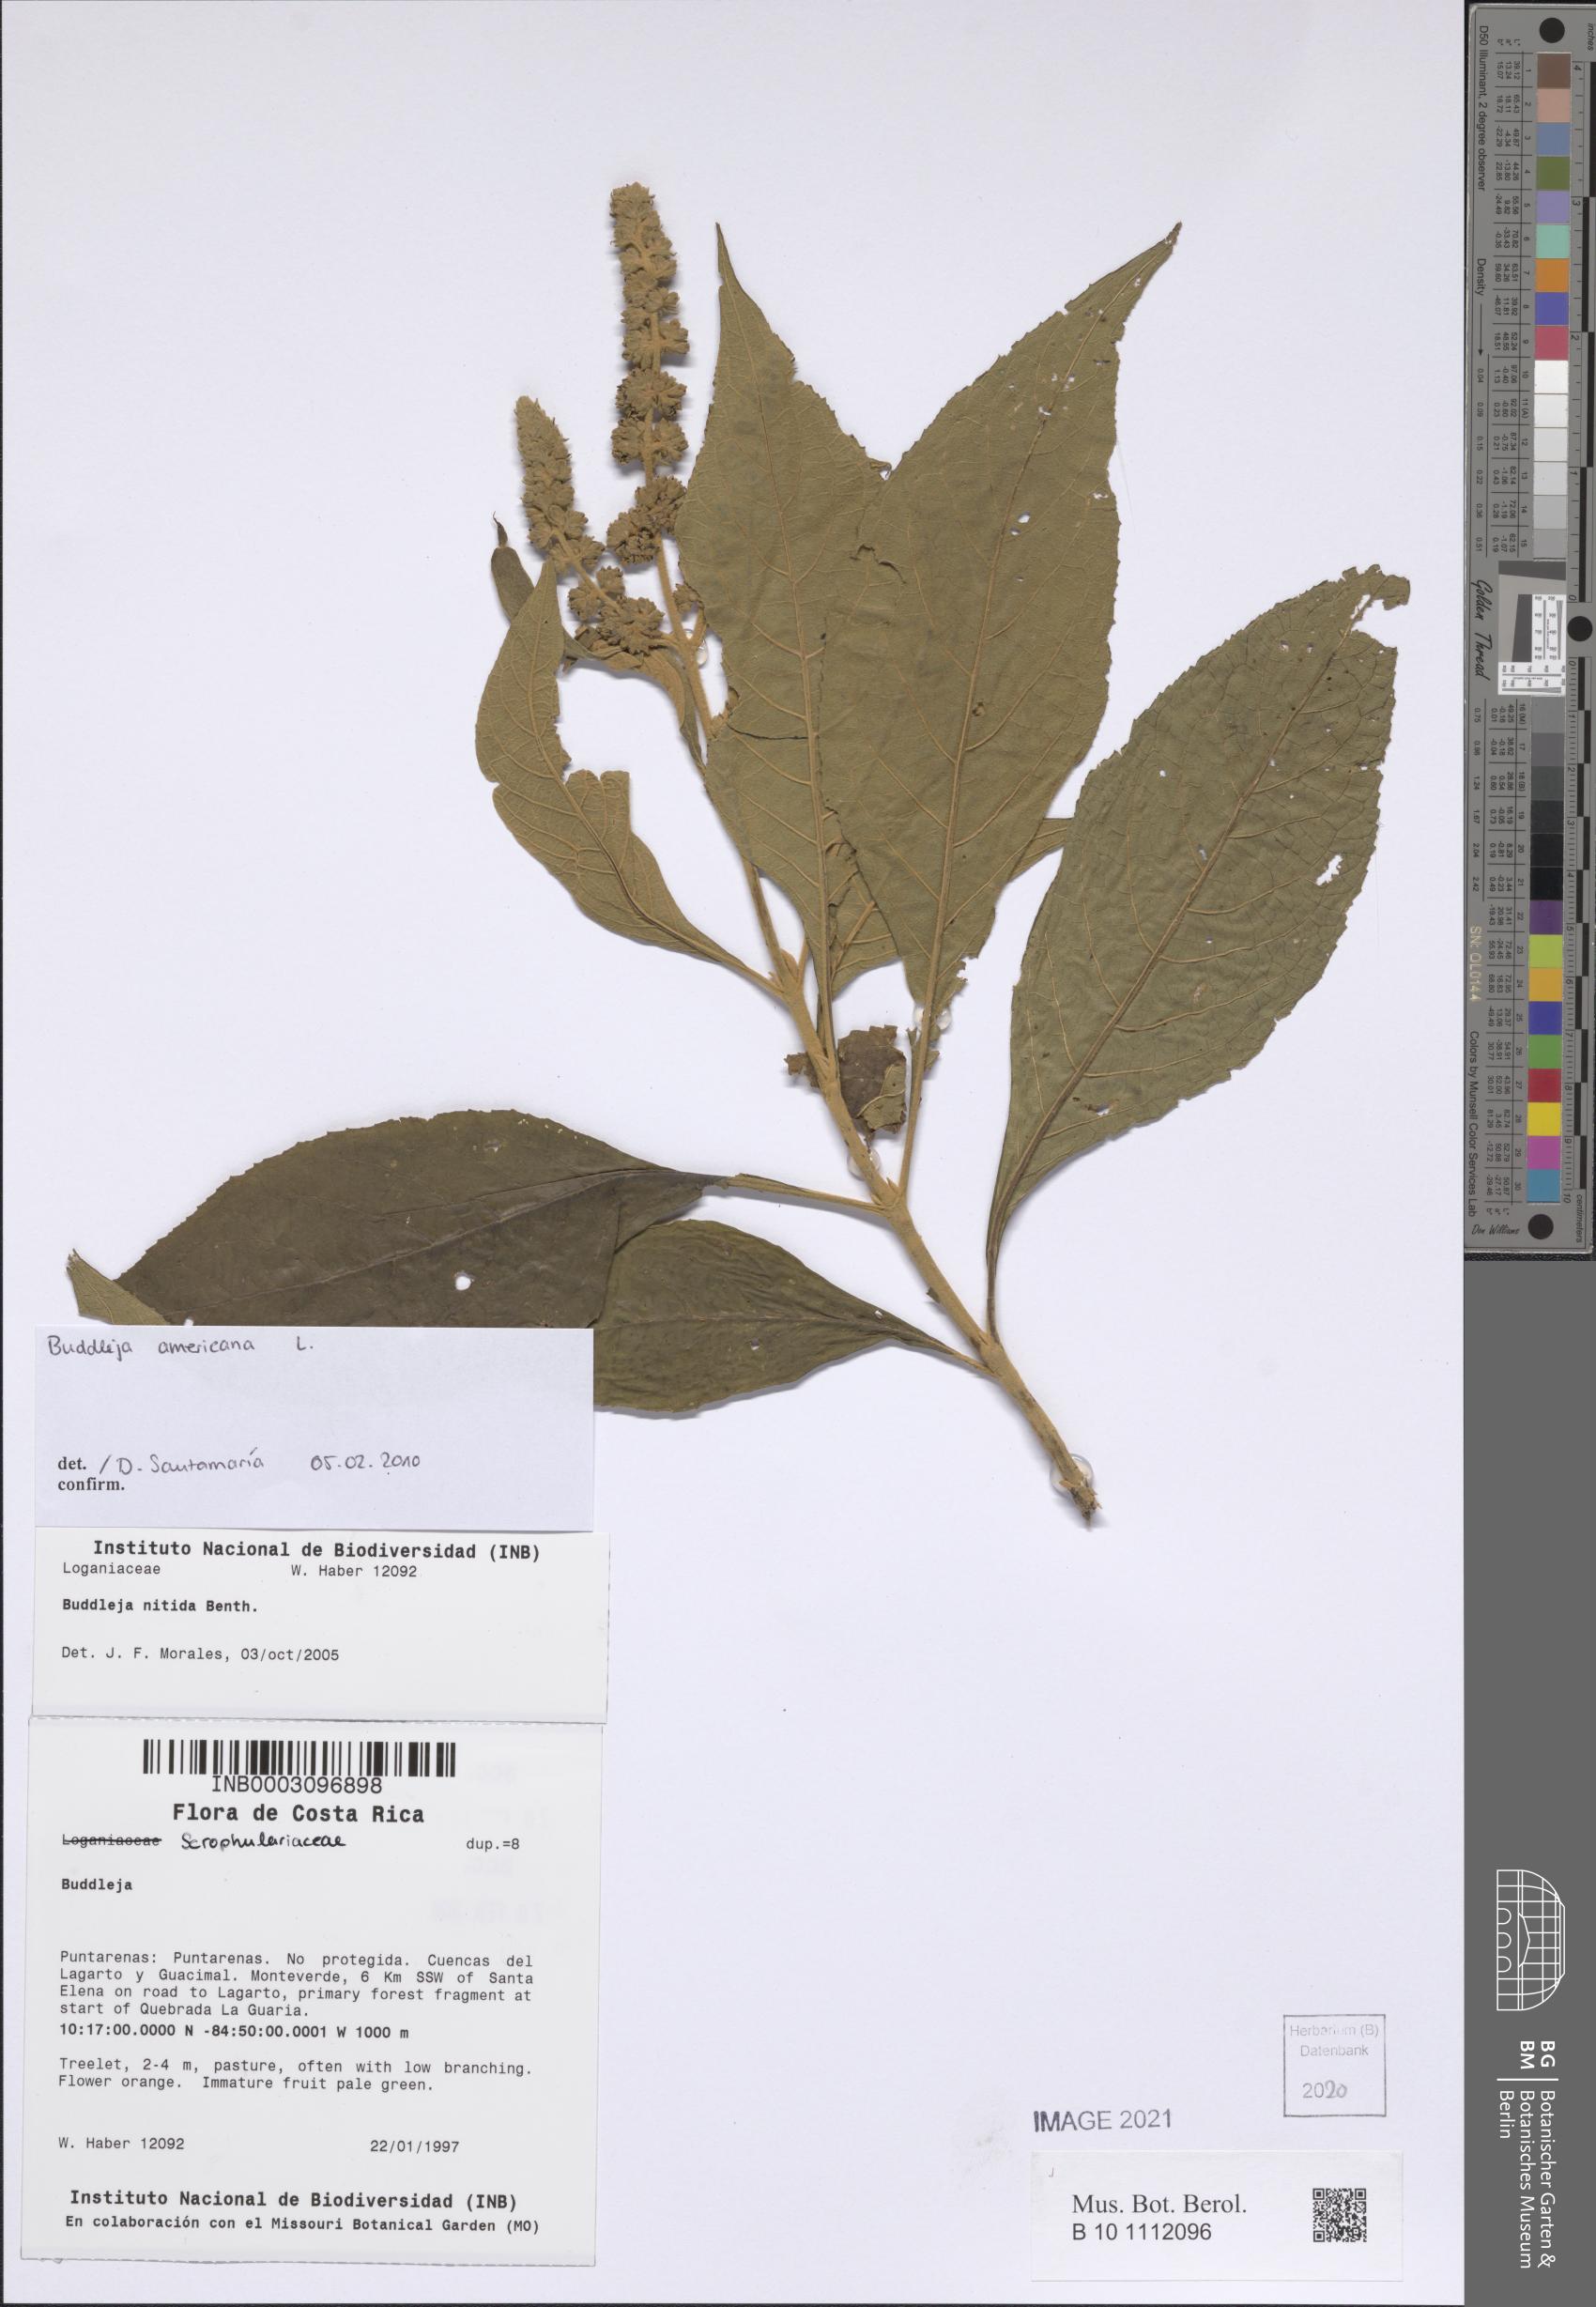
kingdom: Plantae
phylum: Tracheophyta
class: Magnoliopsida
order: Lamiales
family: Scrophulariaceae
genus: Buddleja
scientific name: Buddleja americana
